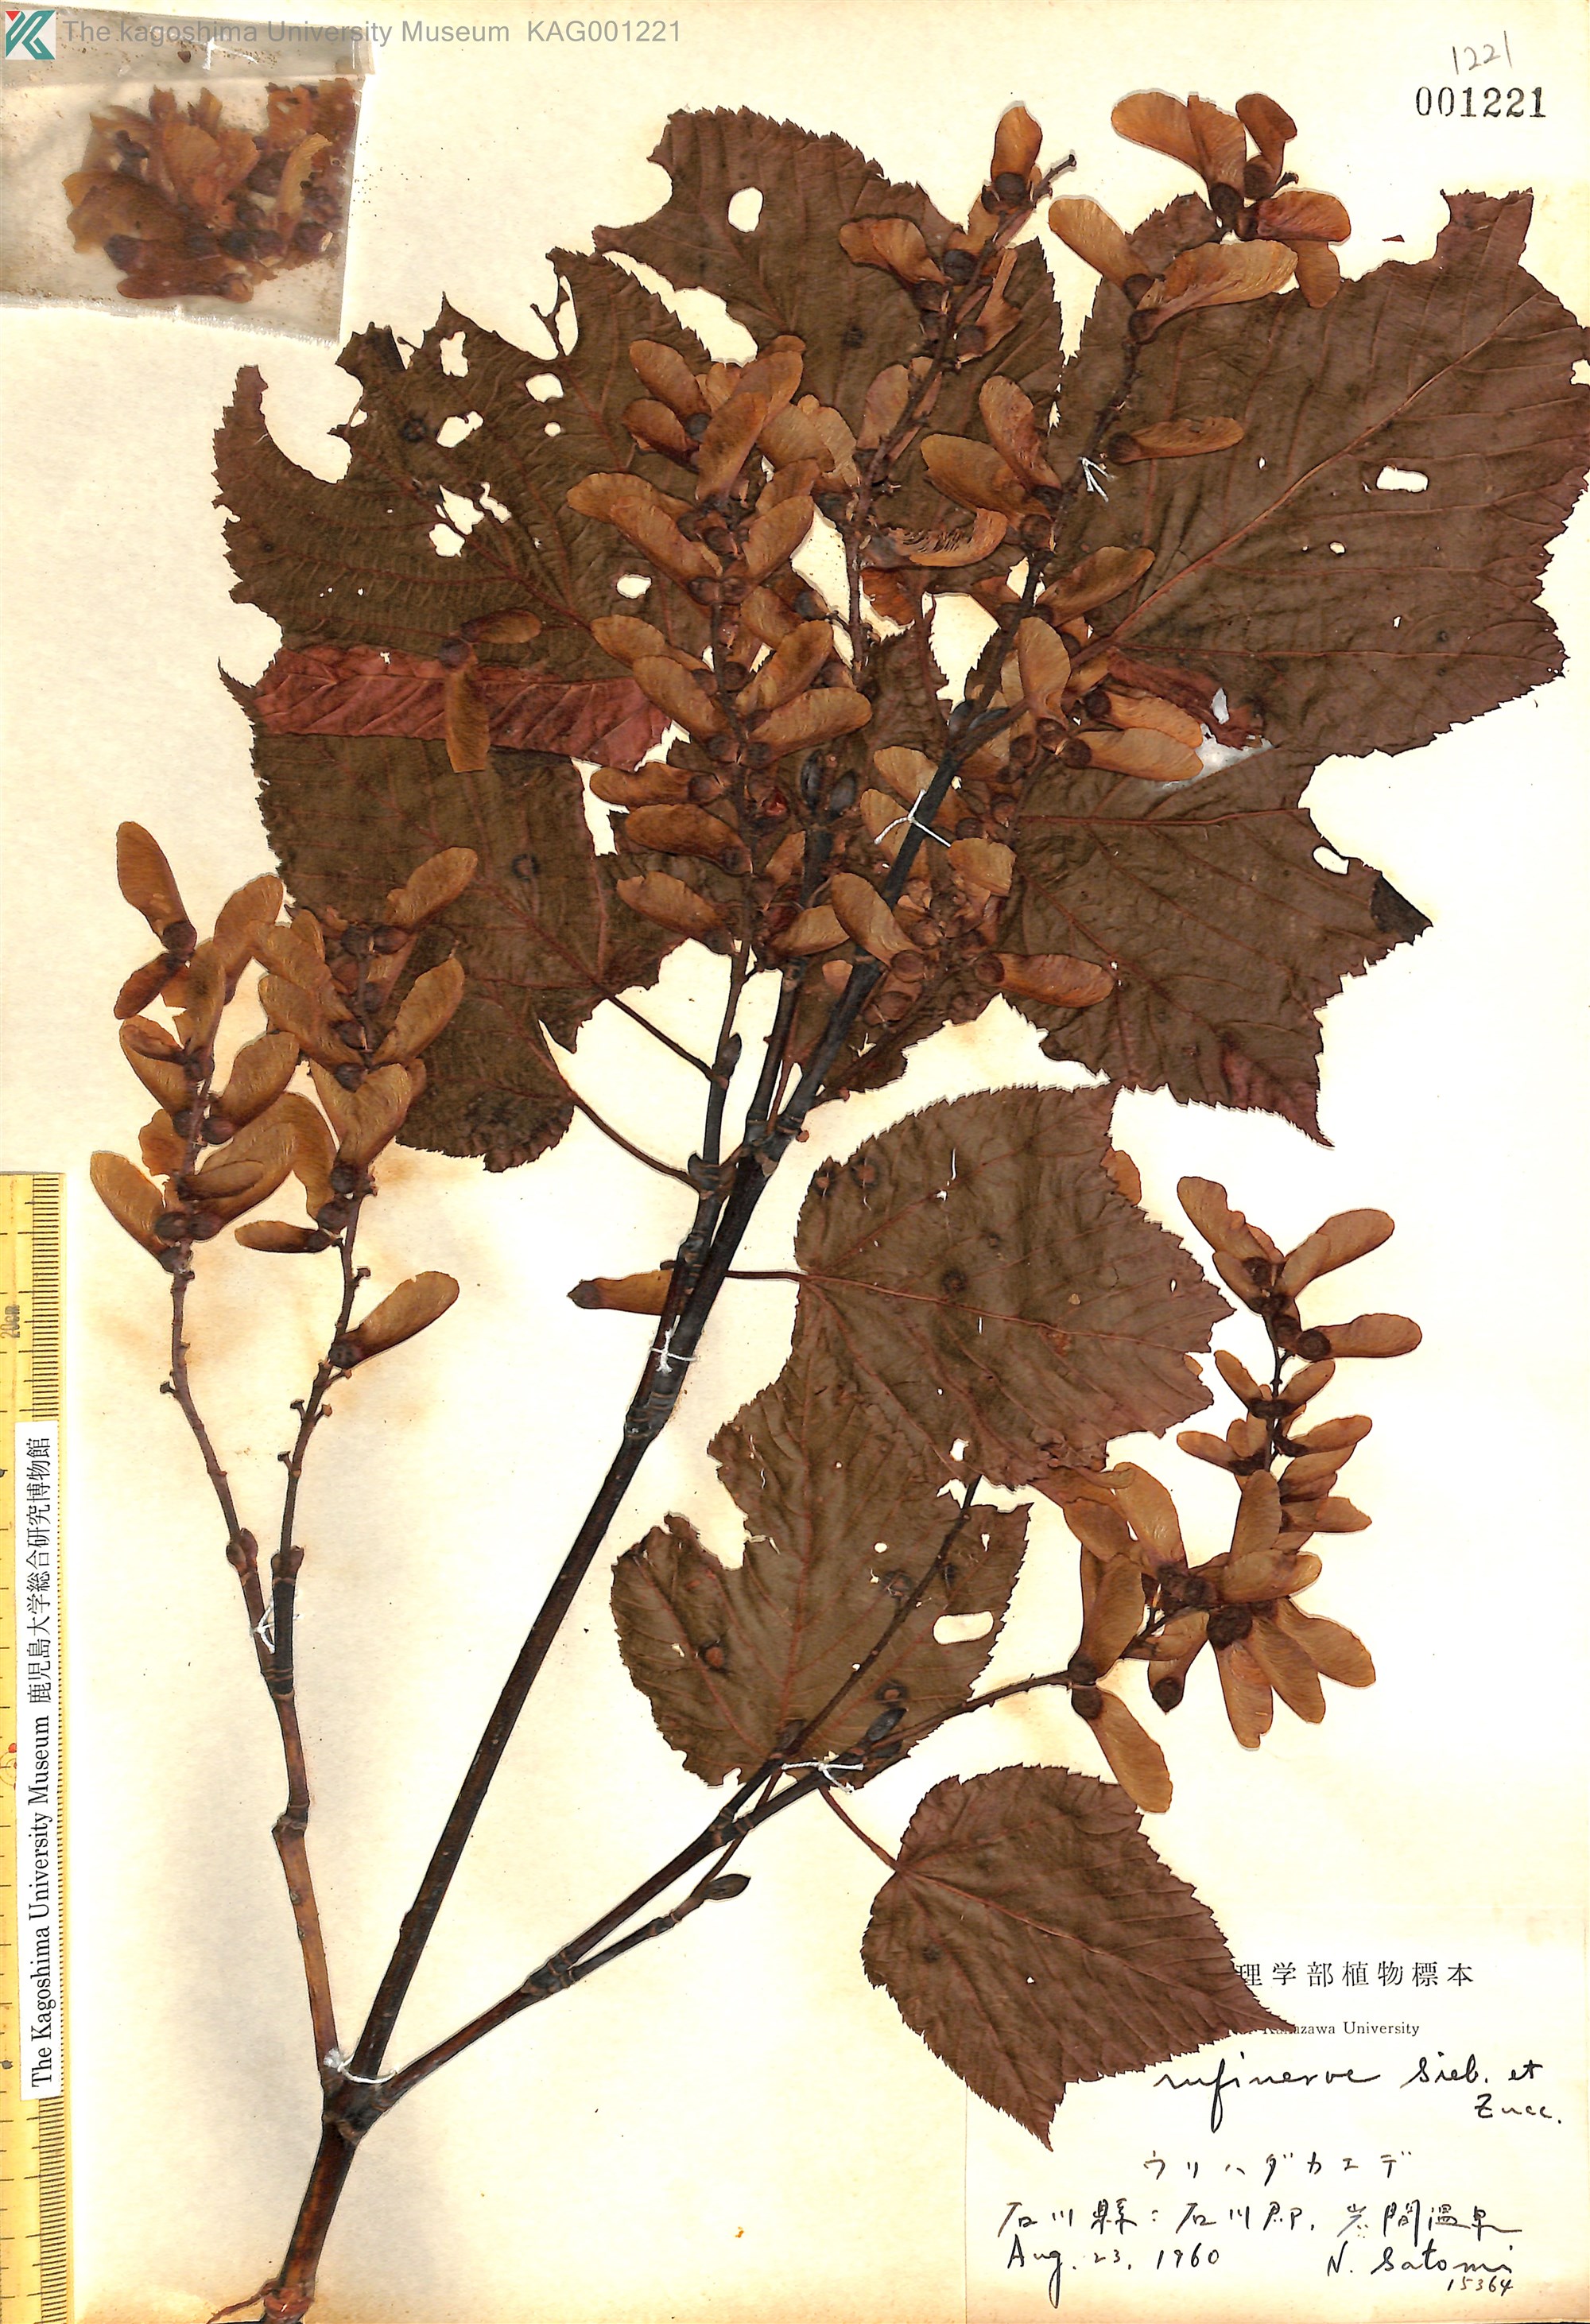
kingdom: Plantae
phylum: Tracheophyta
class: Magnoliopsida
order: Sapindales
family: Sapindaceae
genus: Acer
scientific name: Acer rufinerve
